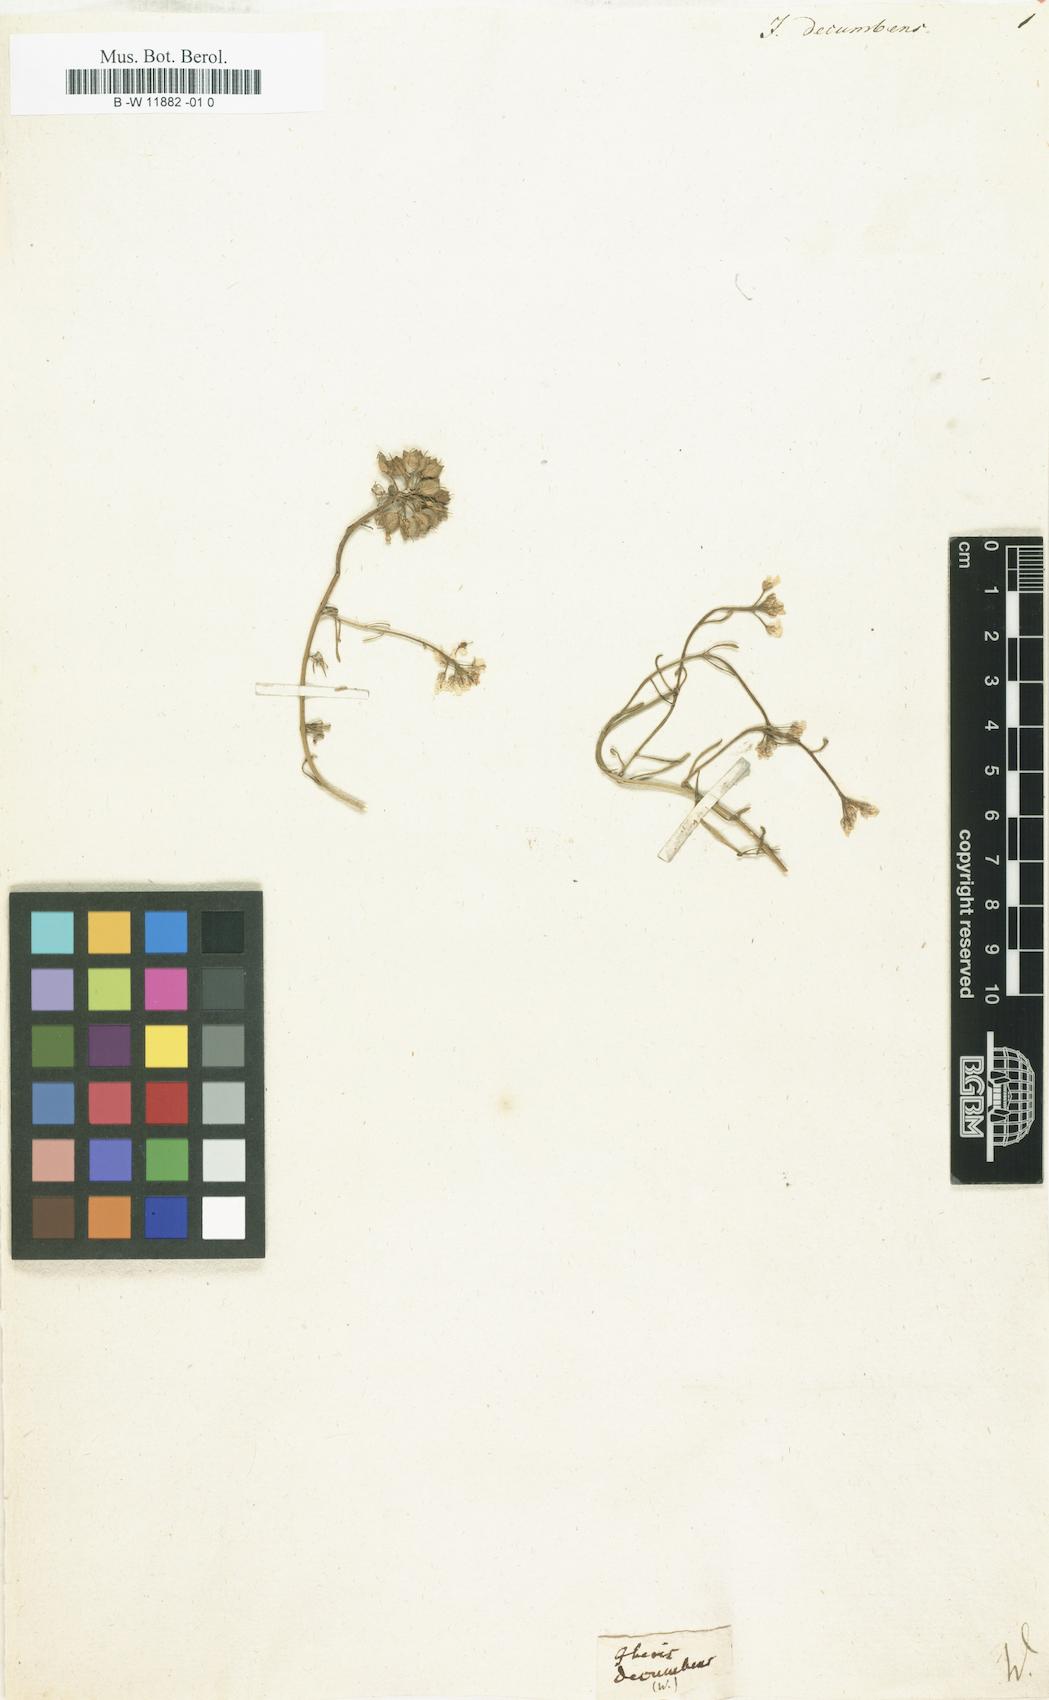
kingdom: Plantae
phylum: Tracheophyta
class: Magnoliopsida
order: Brassicales
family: Brassicaceae
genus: Iberis
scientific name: Iberis
